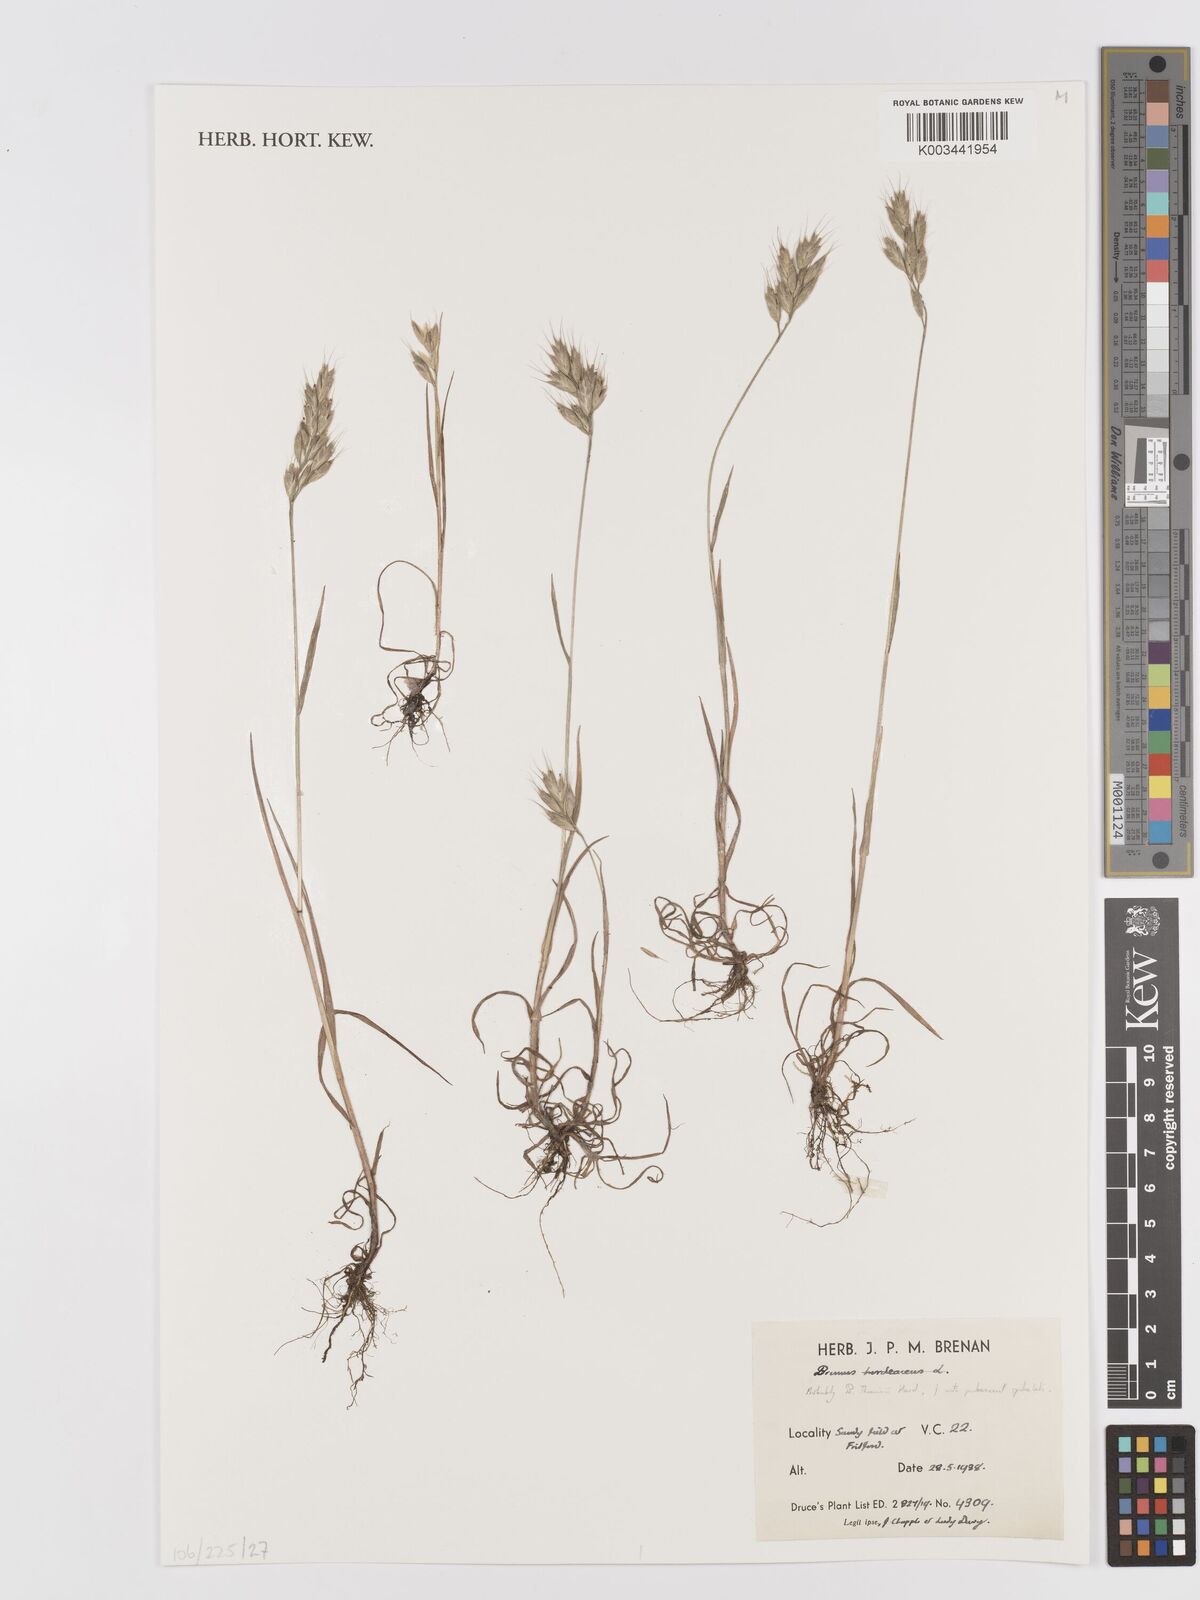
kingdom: Plantae
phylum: Tracheophyta
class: Liliopsida
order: Poales
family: Poaceae
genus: Bromus
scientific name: Bromus hordeaceus
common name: Soft brome
